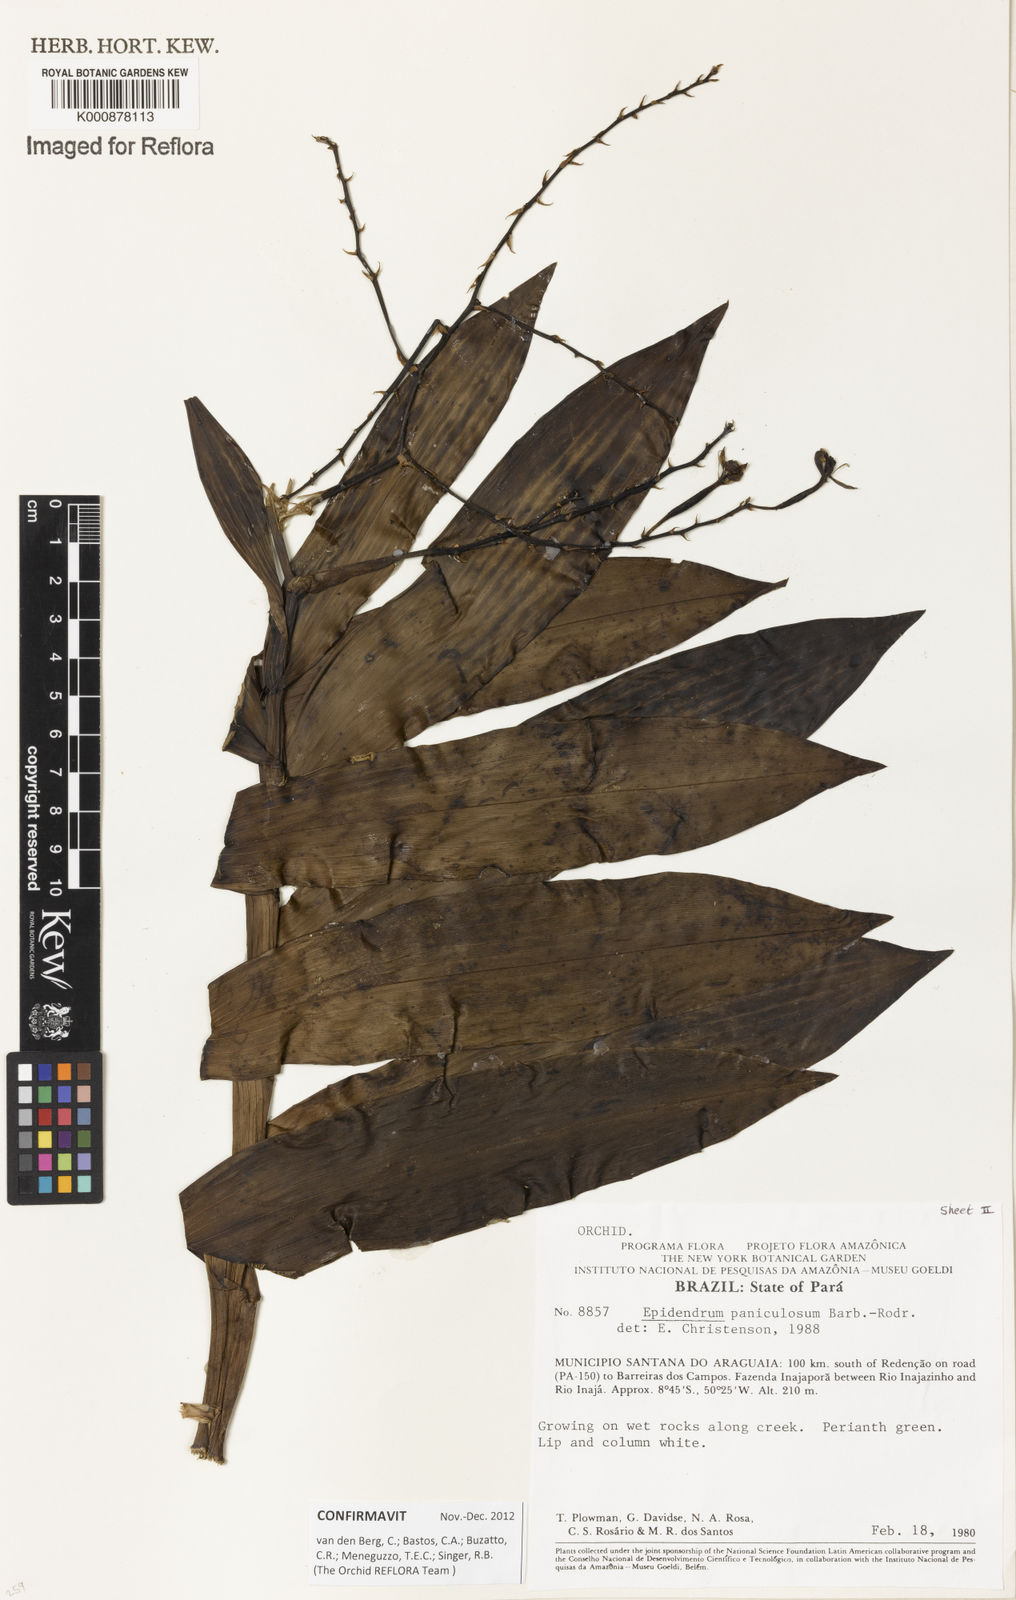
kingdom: Plantae
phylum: Tracheophyta
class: Liliopsida
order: Asparagales
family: Orchidaceae
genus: Epidendrum
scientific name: Epidendrum paniculosum
